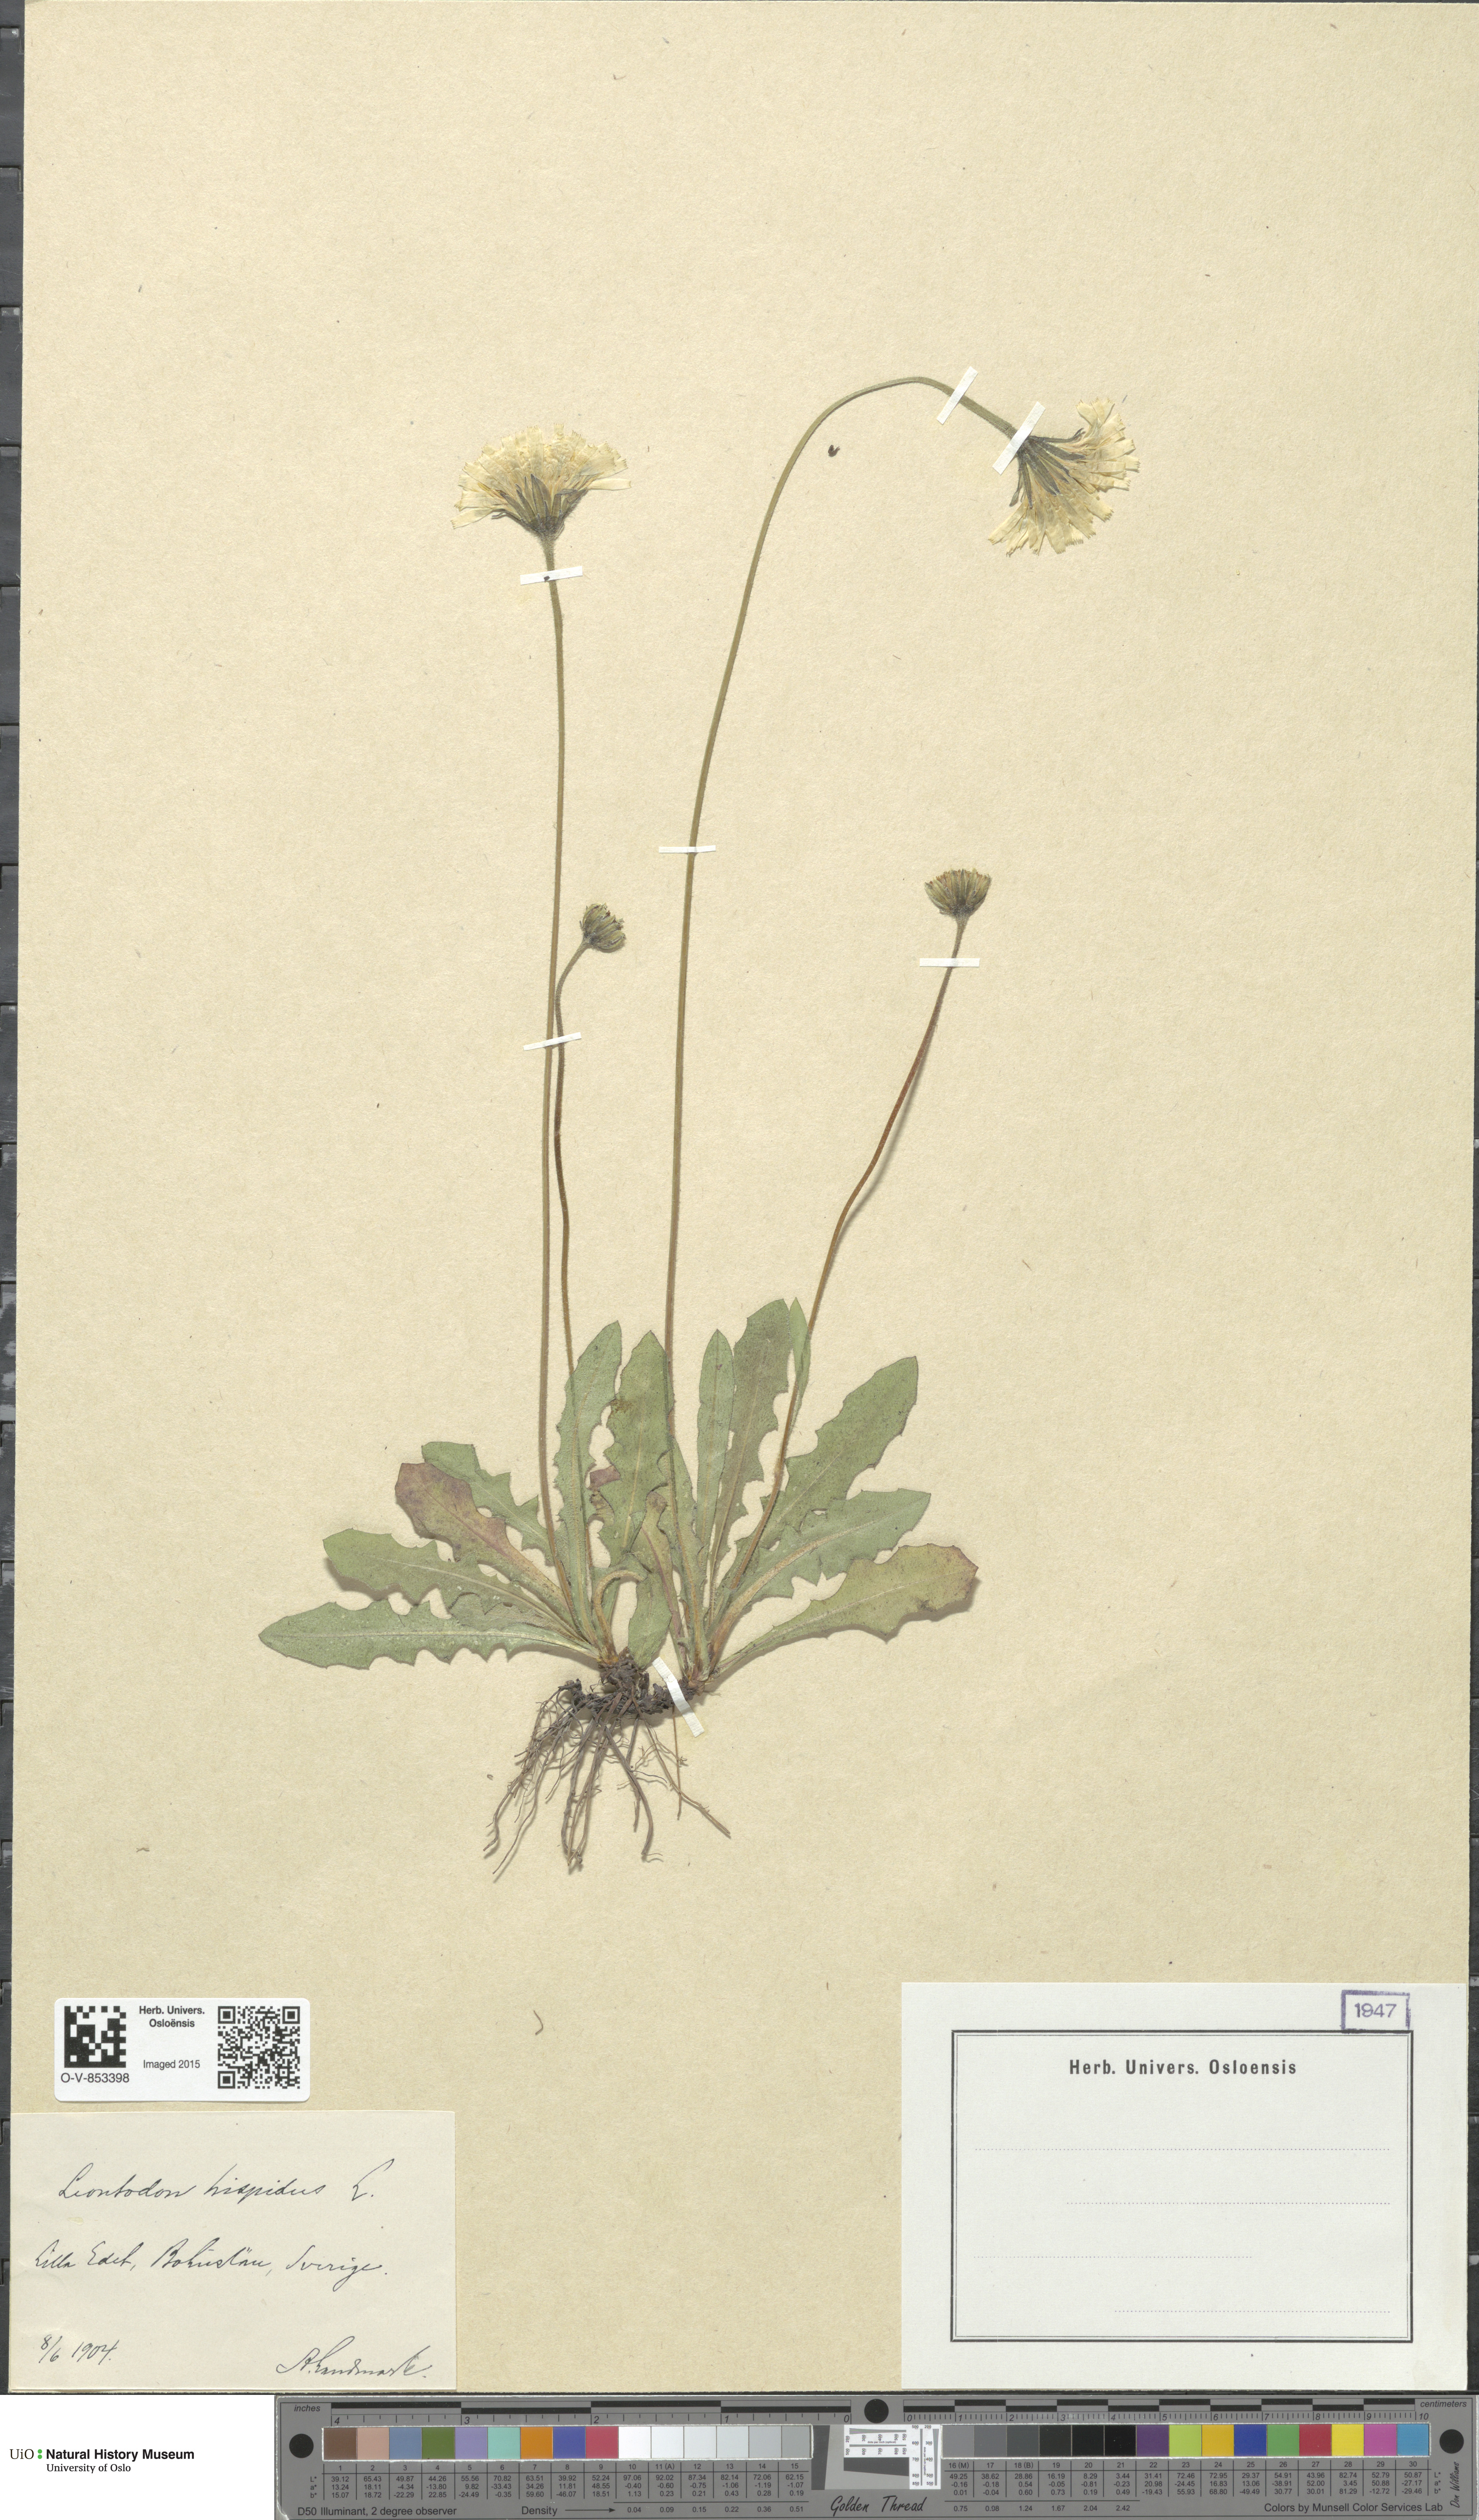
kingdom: Plantae
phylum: Tracheophyta
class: Magnoliopsida
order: Asterales
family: Asteraceae
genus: Leontodon
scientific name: Leontodon hispidus
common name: Rough hawkbit
